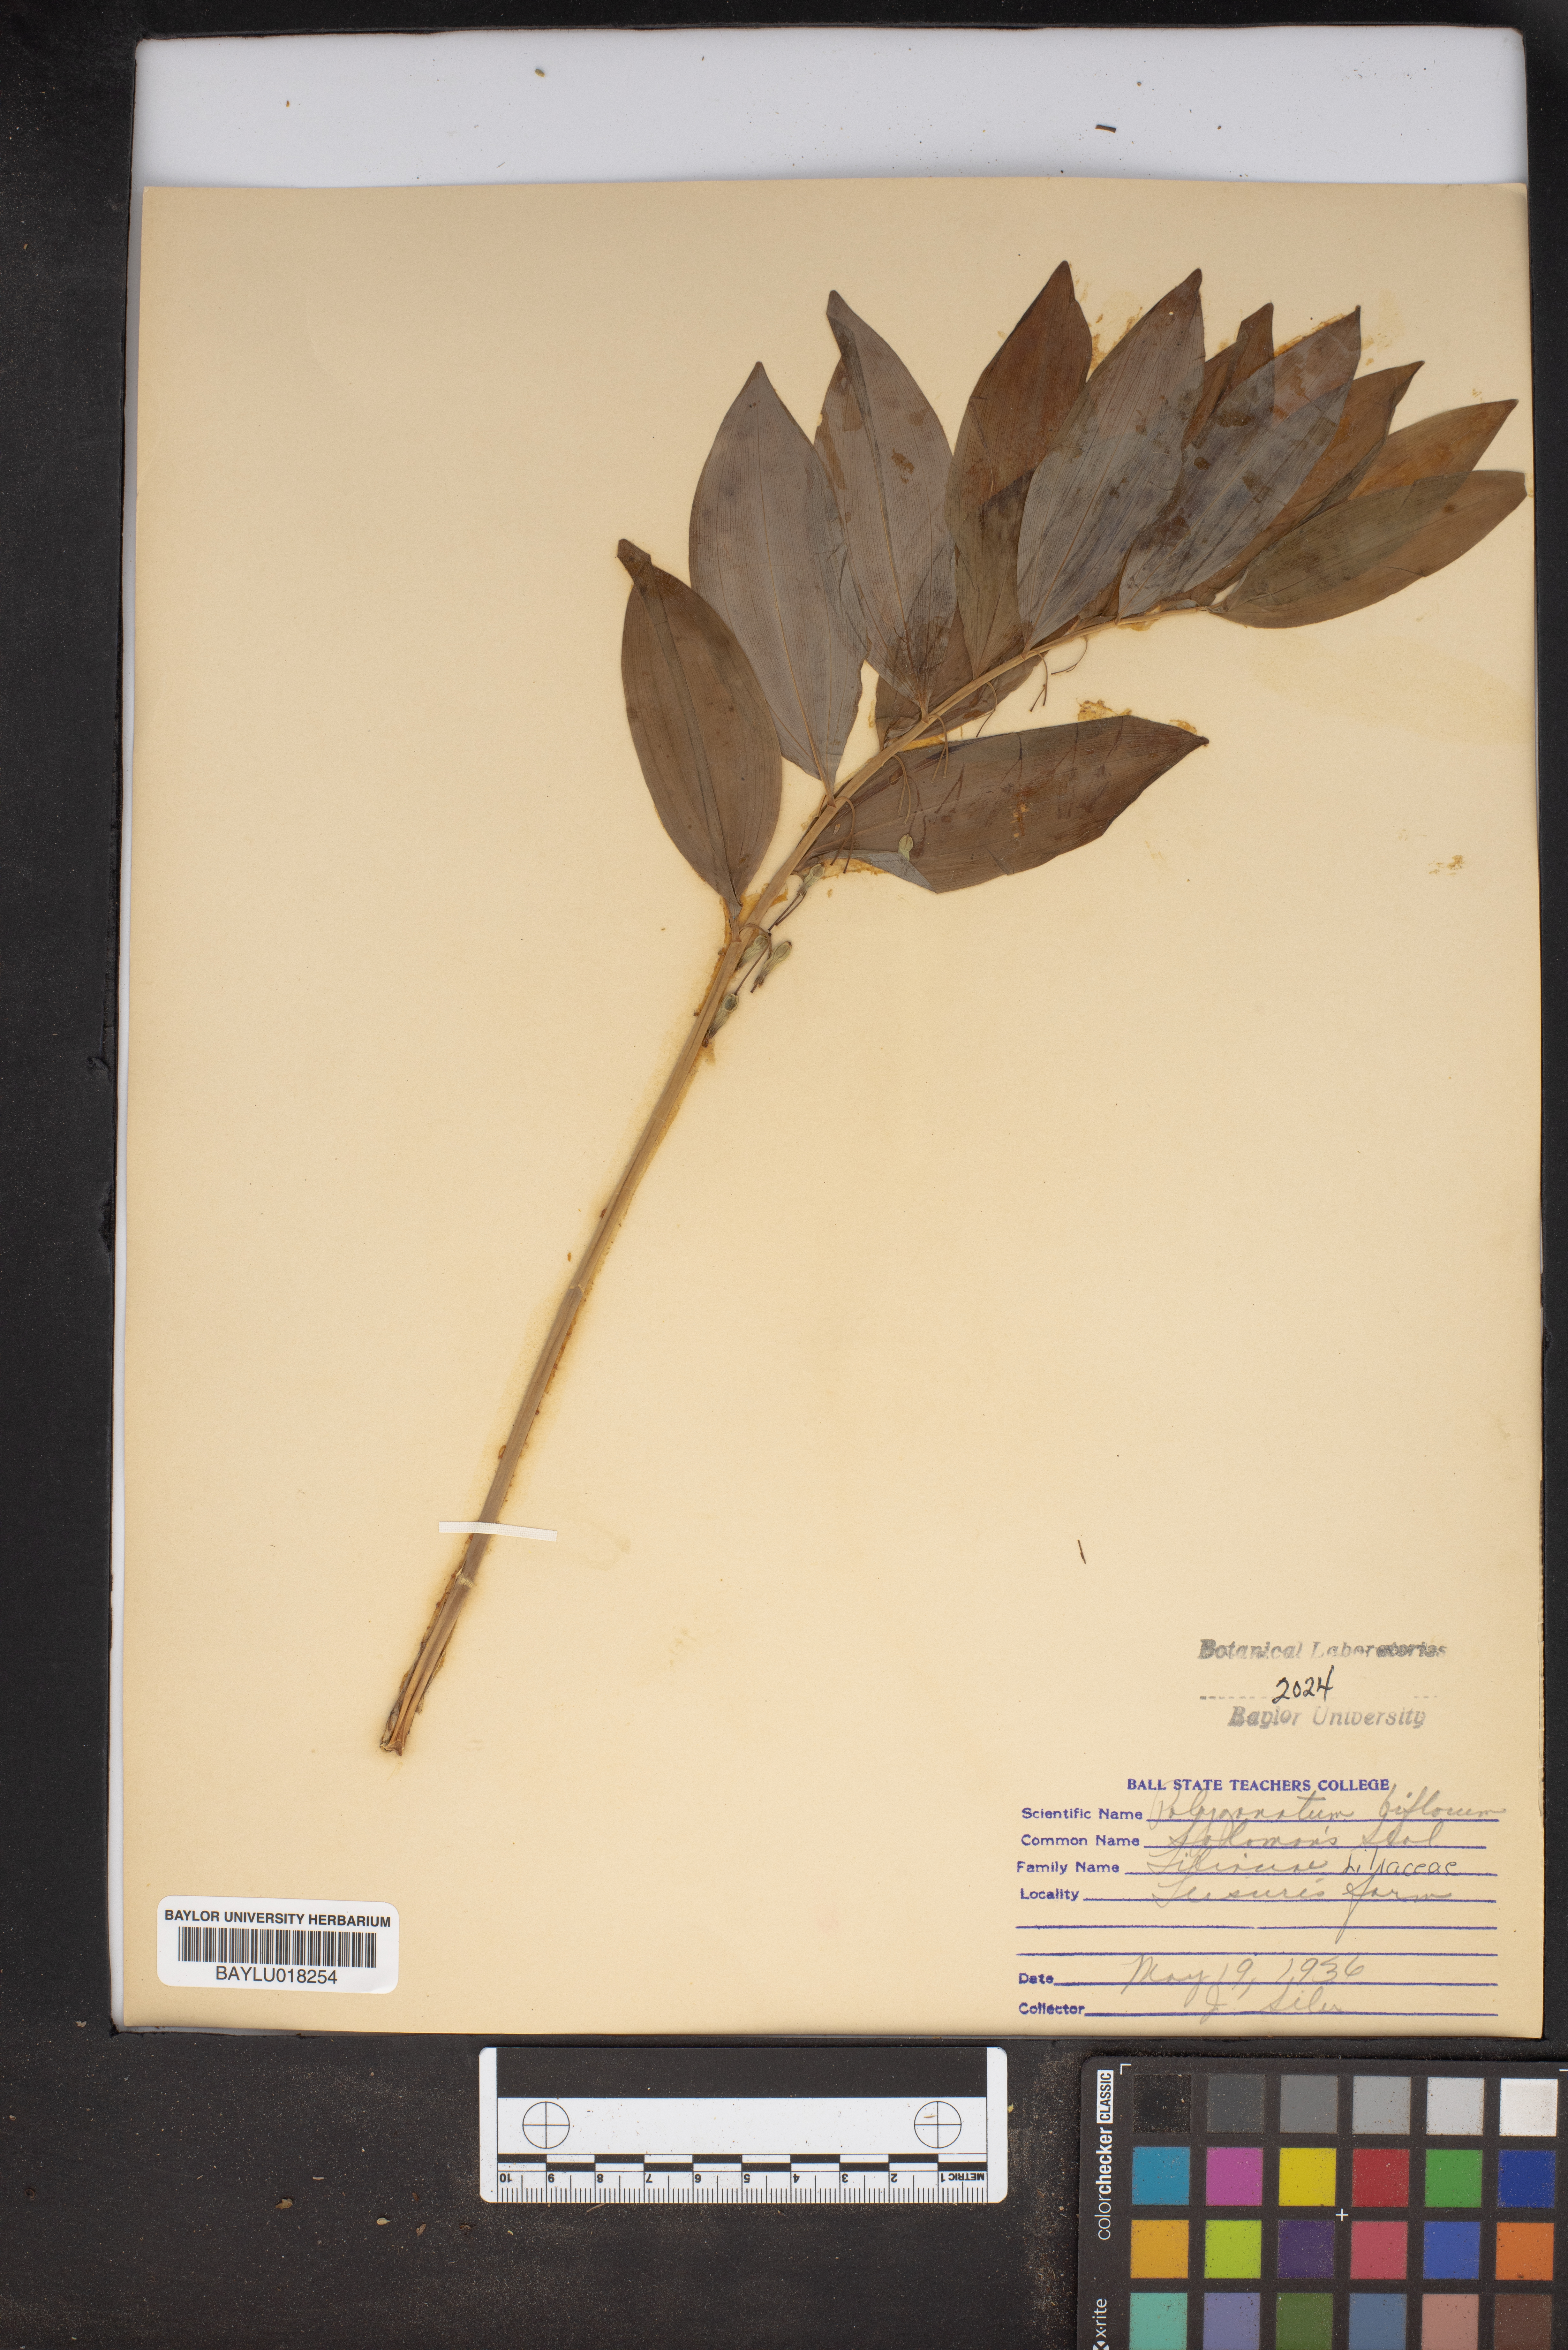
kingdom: Plantae
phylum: Tracheophyta
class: Liliopsida
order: Asparagales
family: Asparagaceae
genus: Polygonatum
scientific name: Polygonatum biflorum
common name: American solomon's-seal
